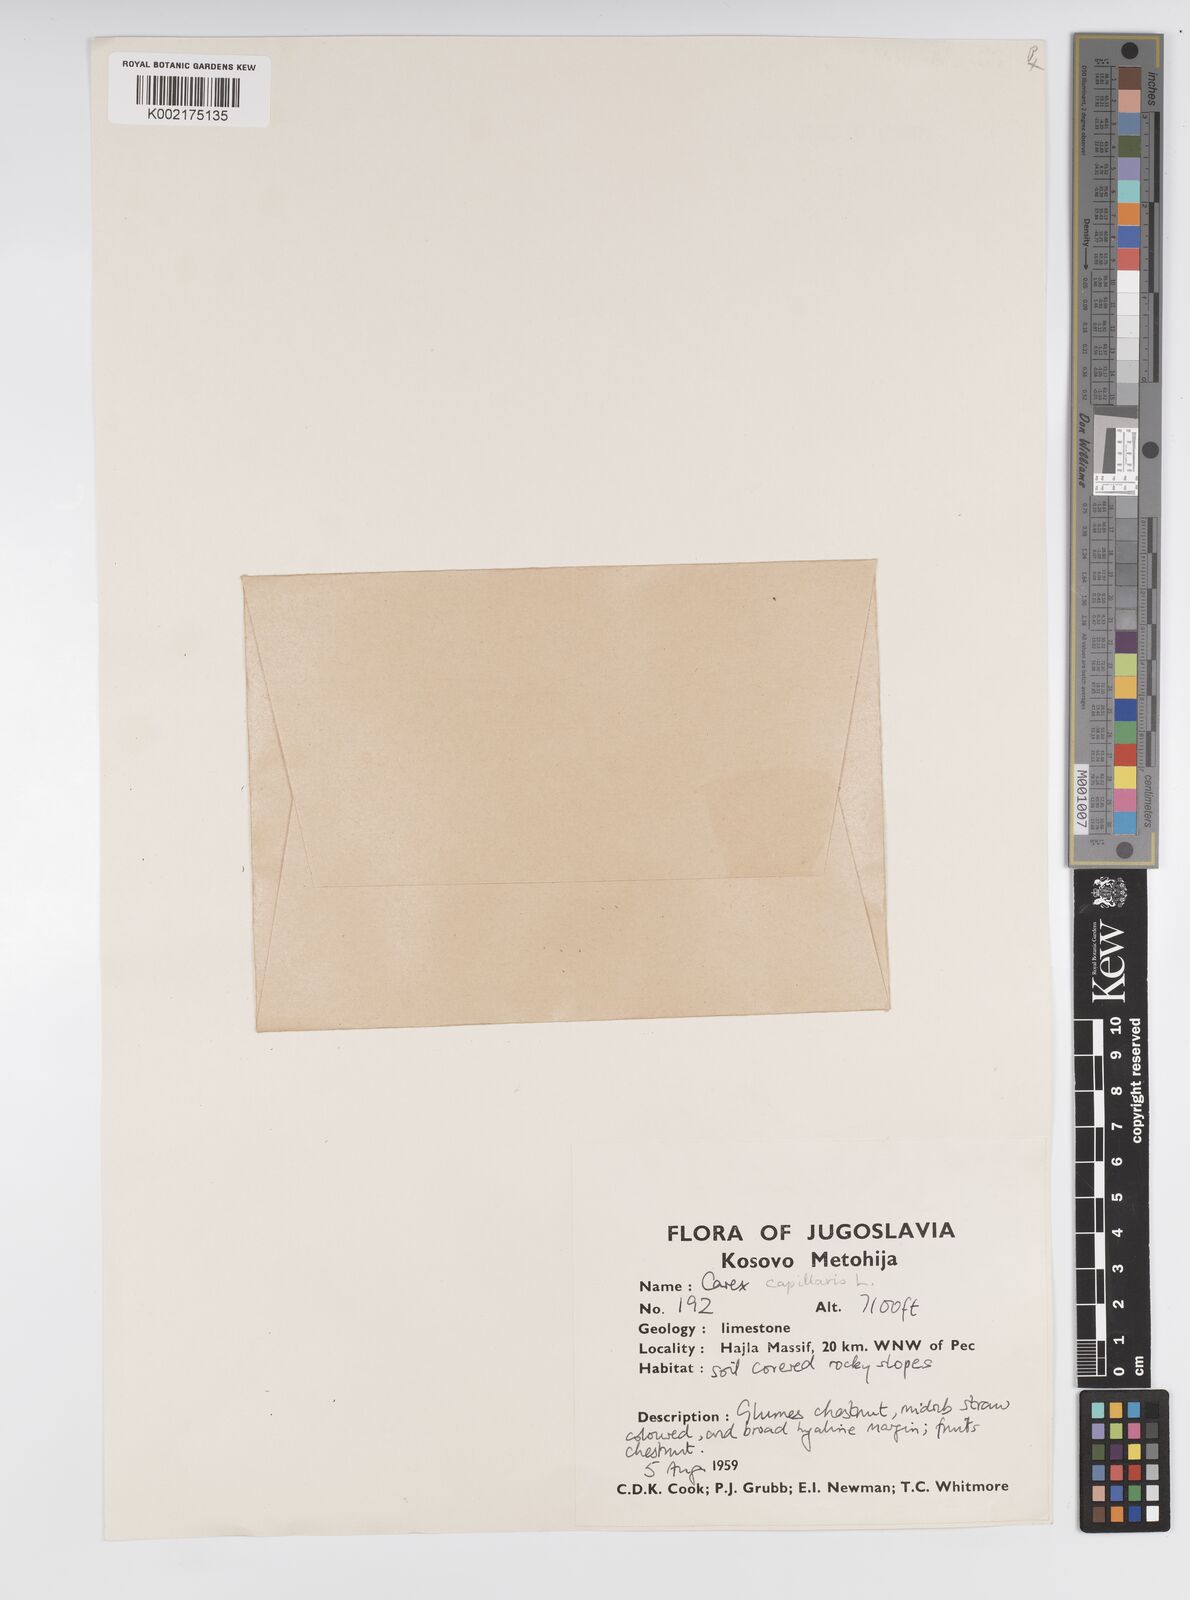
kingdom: Plantae
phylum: Tracheophyta
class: Liliopsida
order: Poales
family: Cyperaceae
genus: Carex
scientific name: Carex capillaris
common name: Hair sedge
